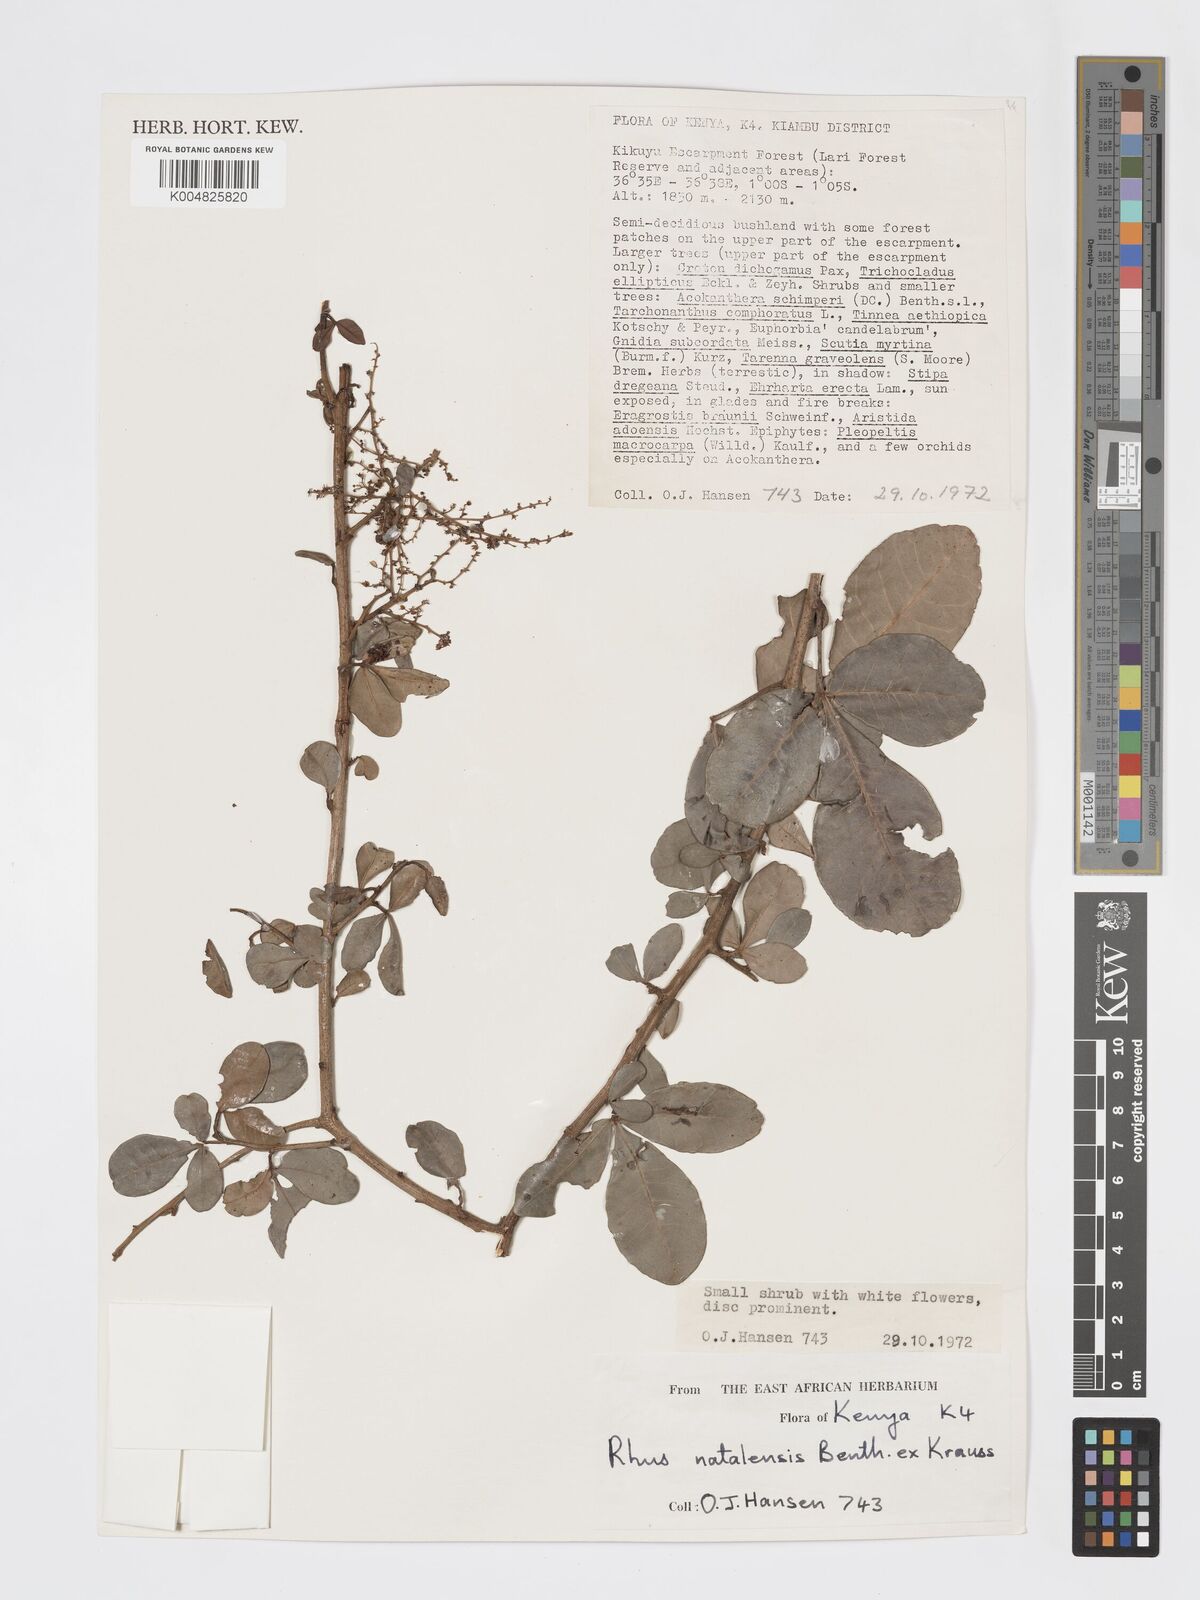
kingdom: Plantae
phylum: Tracheophyta
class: Magnoliopsida
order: Sapindales
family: Anacardiaceae
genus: Searsia
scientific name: Searsia natalensis
